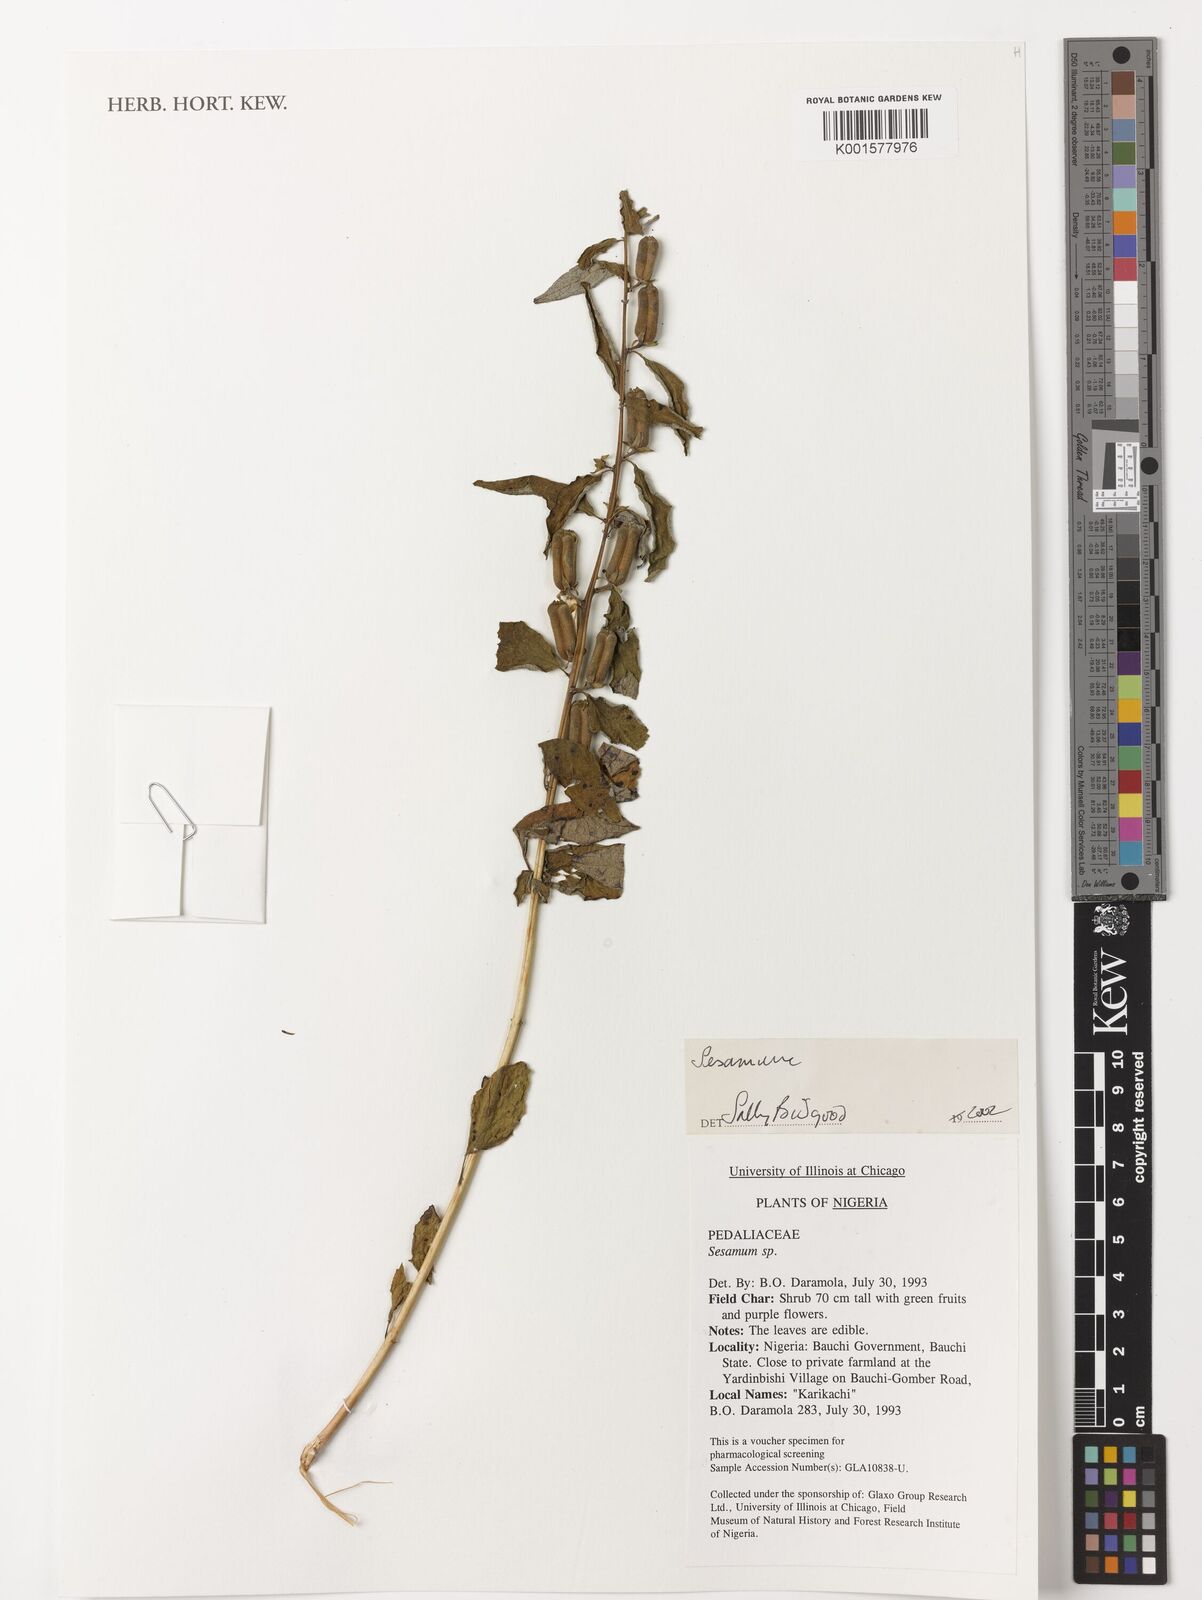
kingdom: Plantae
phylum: Tracheophyta
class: Magnoliopsida
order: Lamiales
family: Pedaliaceae
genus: Sesamum
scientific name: Sesamum
